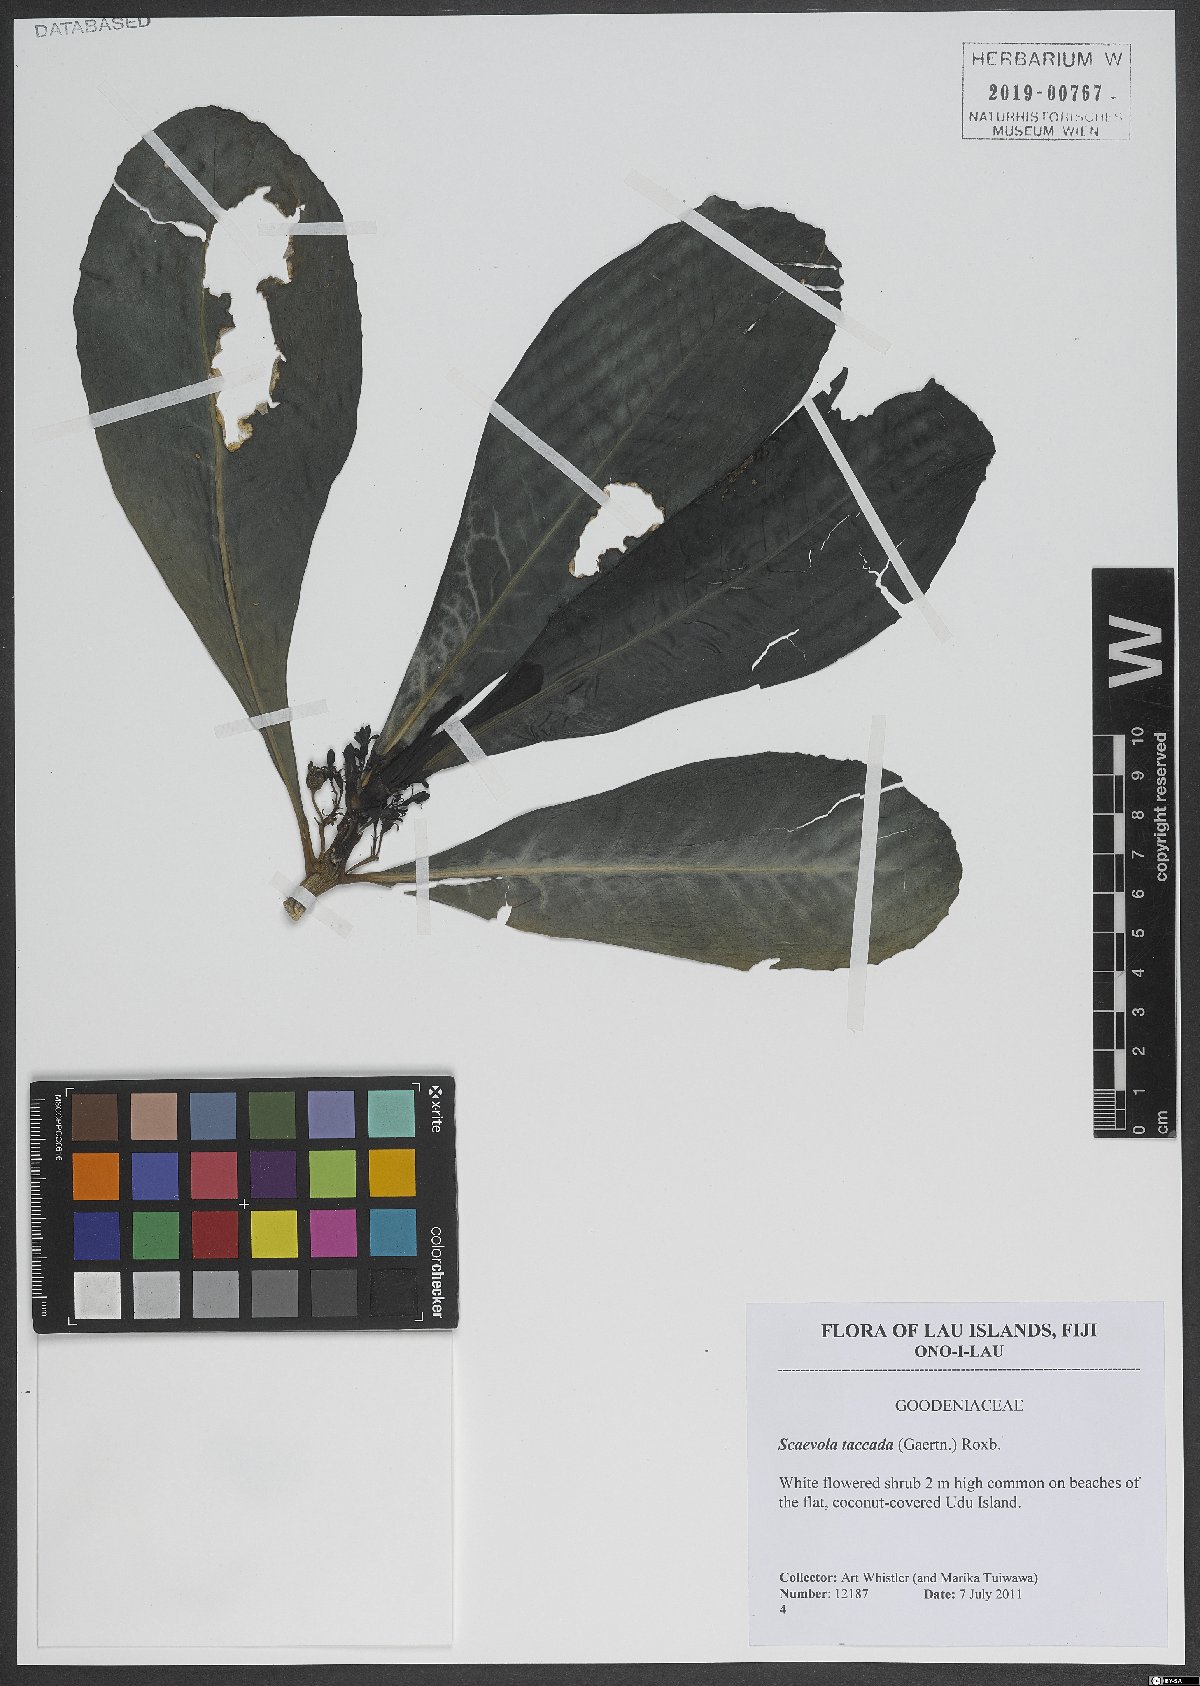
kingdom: Plantae
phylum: Tracheophyta
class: Magnoliopsida
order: Asterales
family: Goodeniaceae
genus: Scaevola
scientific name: Scaevola taccada
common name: Sea lettucetree
